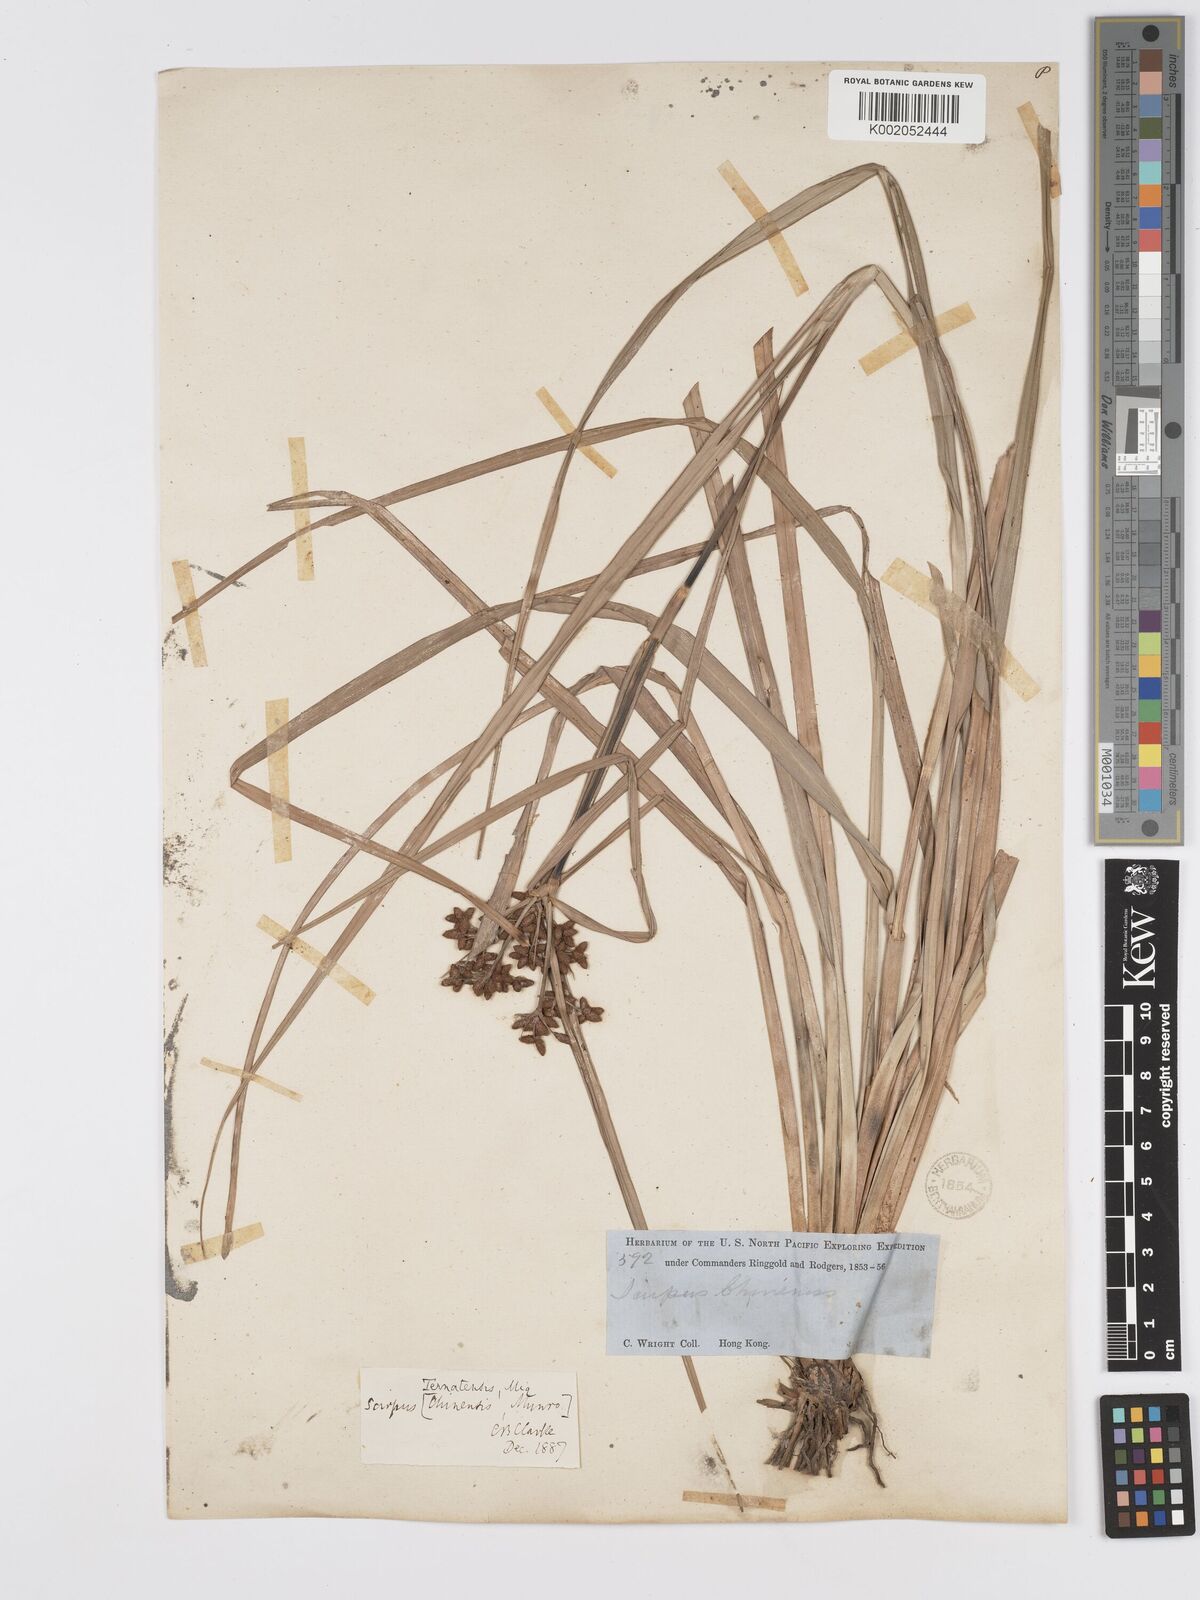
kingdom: Plantae
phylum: Tracheophyta
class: Liliopsida
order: Poales
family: Cyperaceae
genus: Scirpus
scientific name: Scirpus ternatanus
